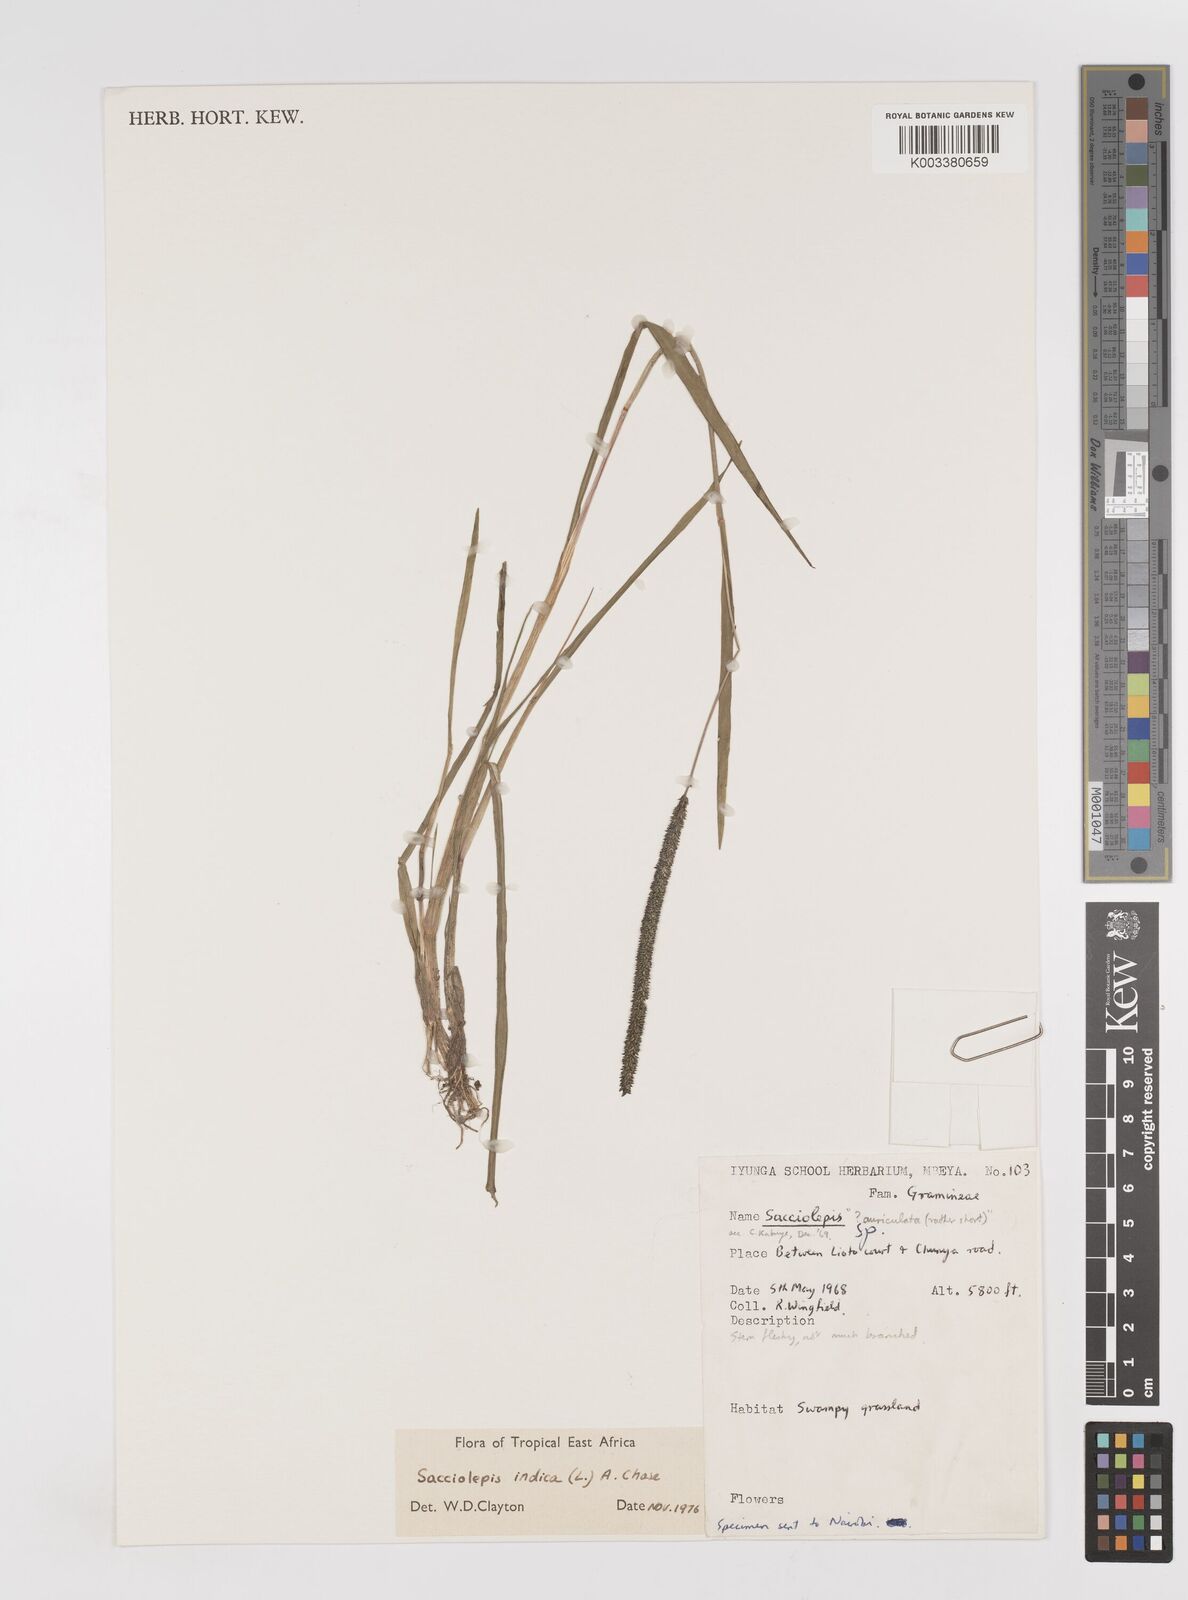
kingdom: Plantae
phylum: Tracheophyta
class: Liliopsida
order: Poales
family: Poaceae
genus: Sacciolepis
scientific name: Sacciolepis indica
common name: Glenwoodgrass
